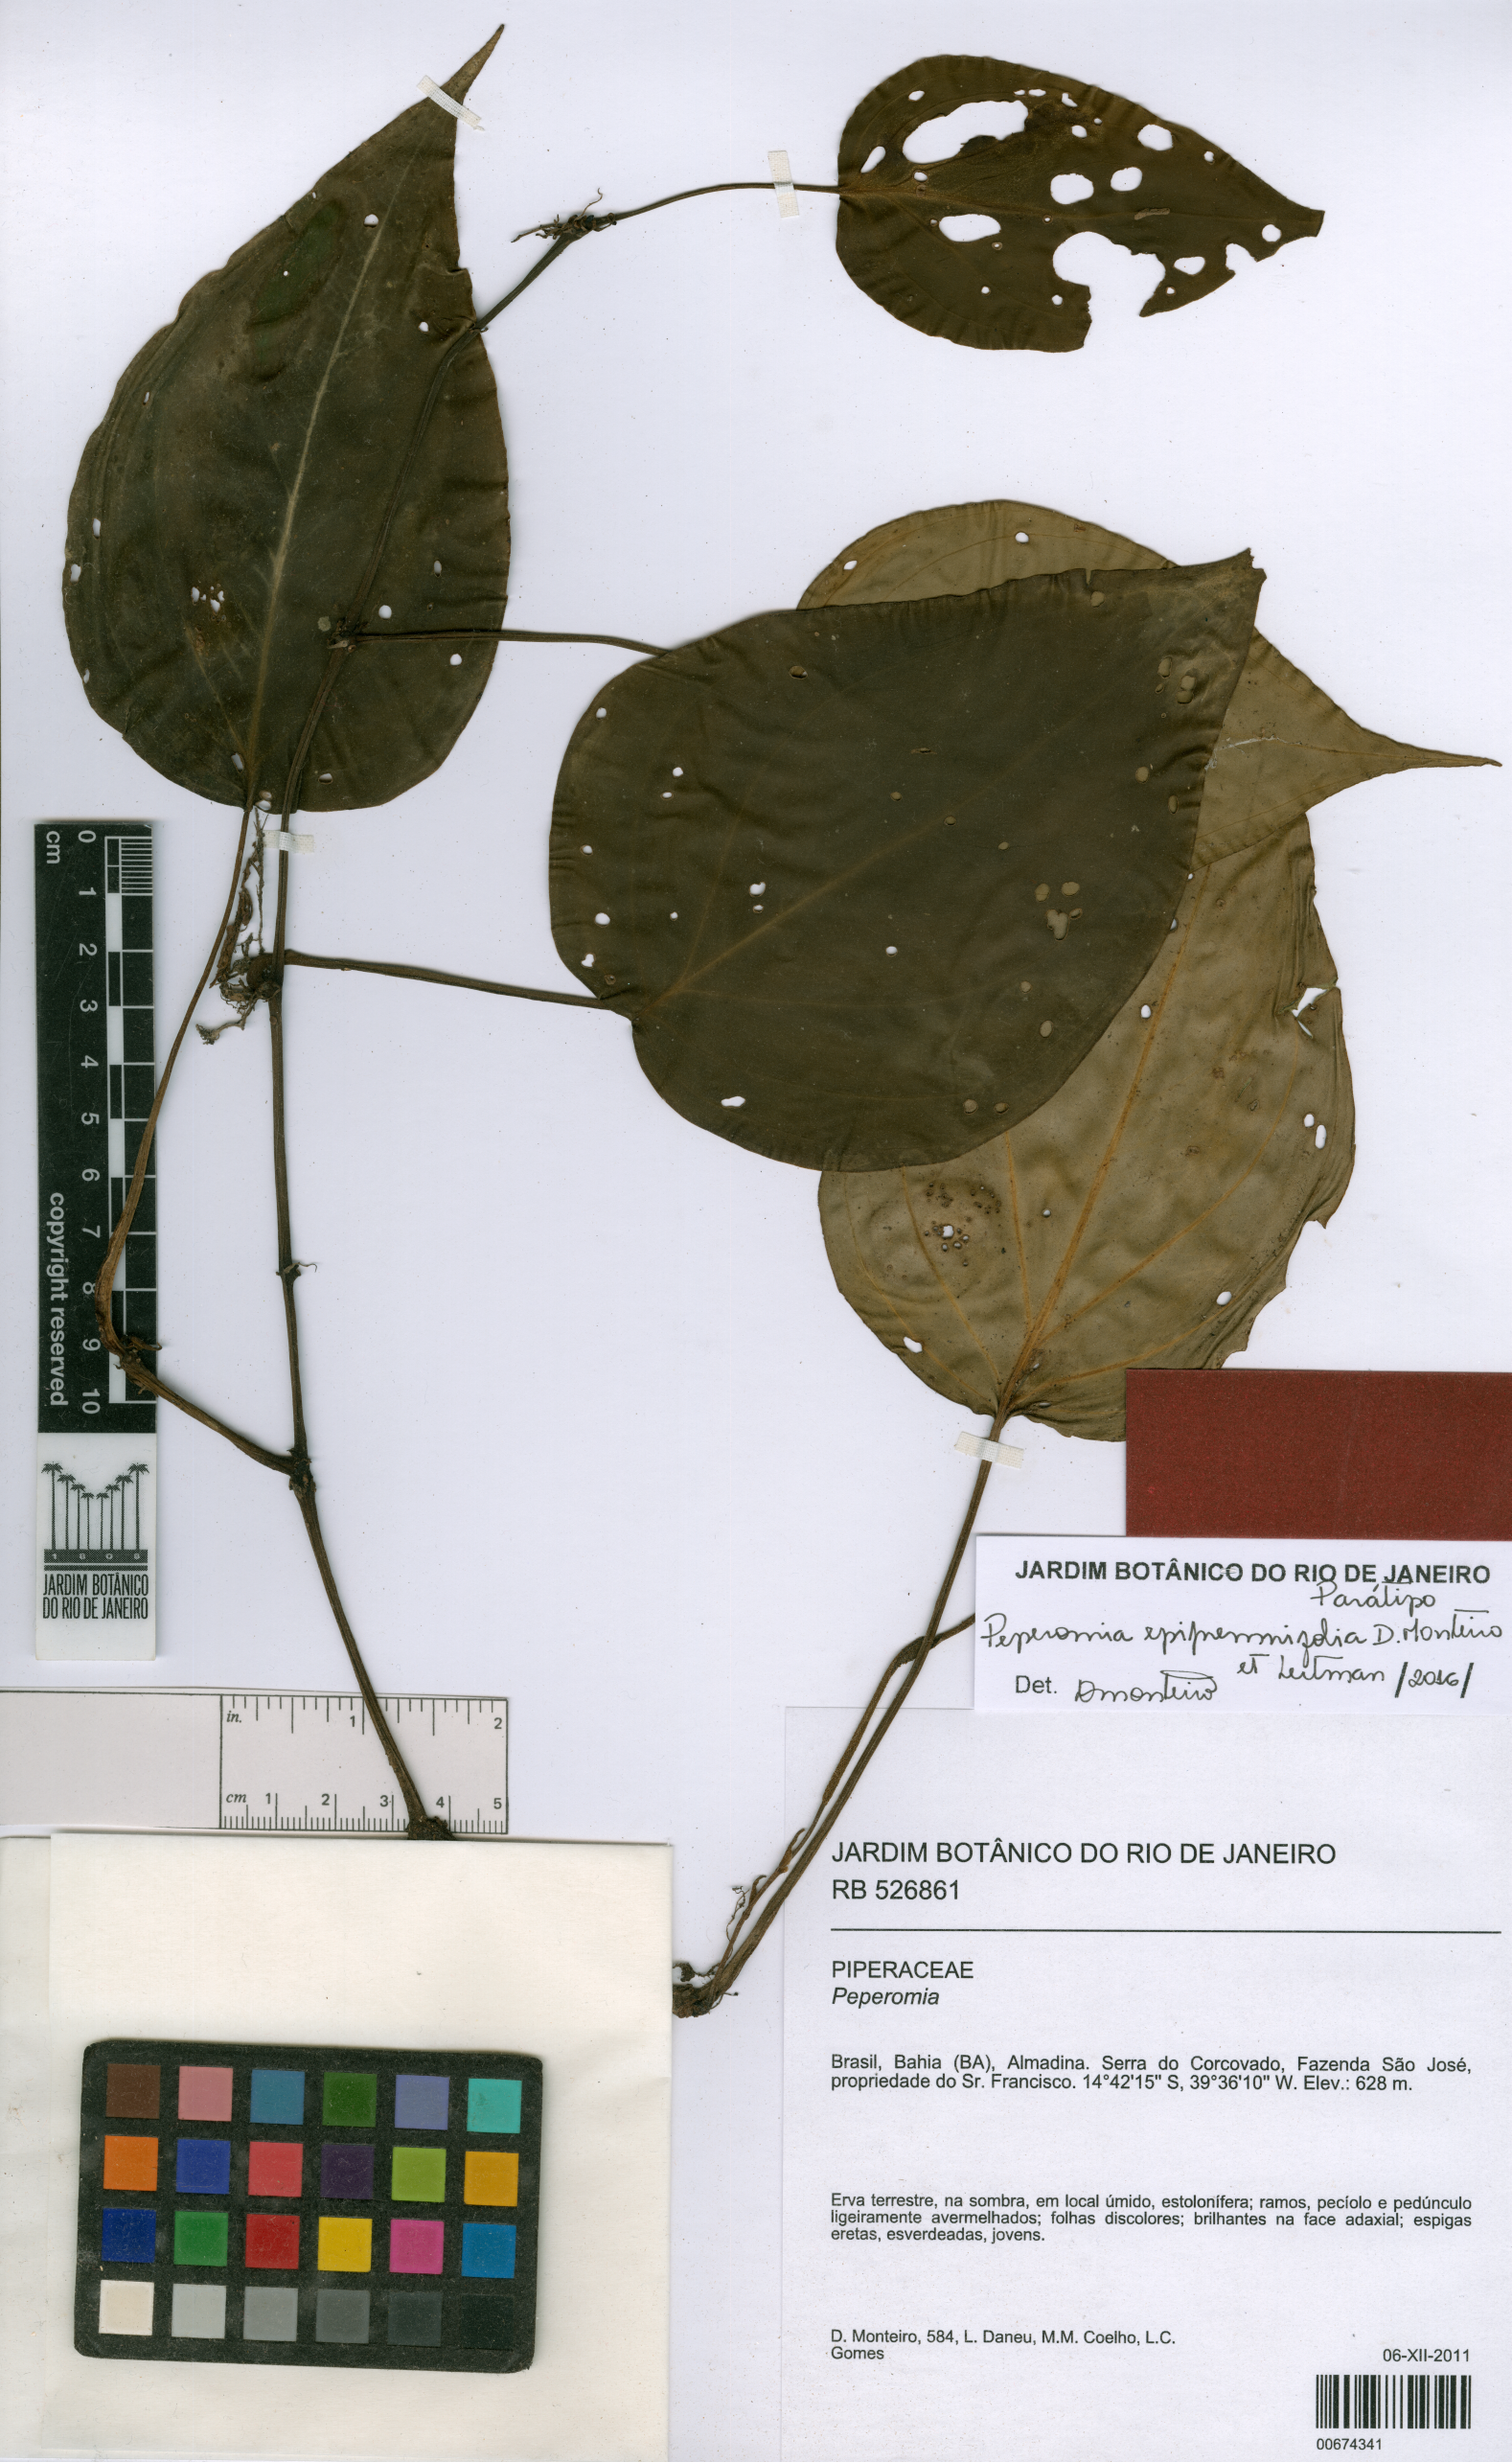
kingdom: Plantae
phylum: Tracheophyta
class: Magnoliopsida
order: Piperales
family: Piperaceae
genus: Peperomia
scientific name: Peperomia epipremnifolia
